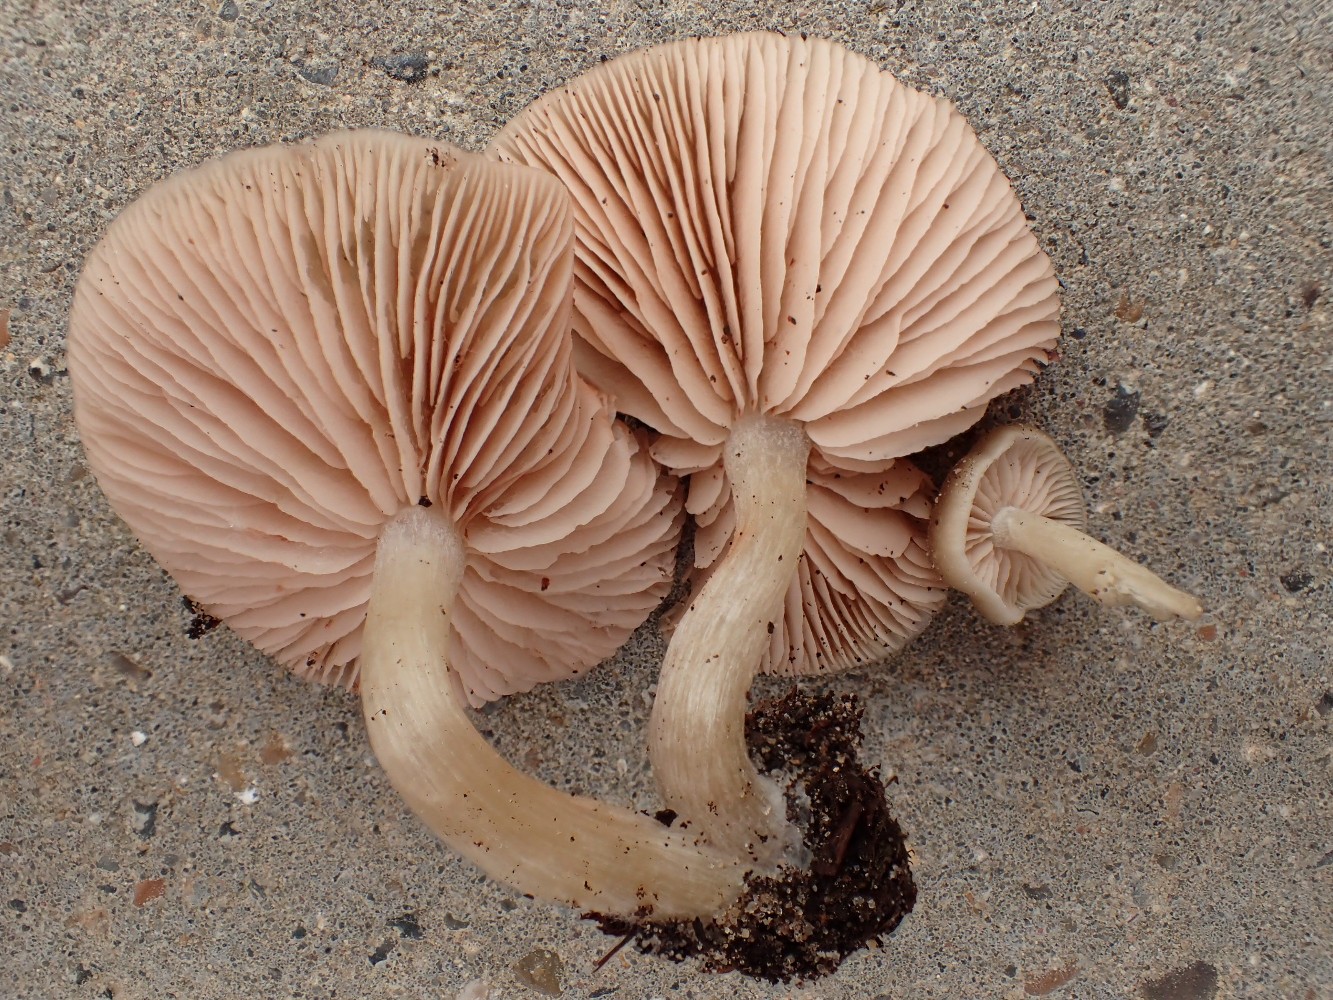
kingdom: Fungi
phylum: Basidiomycota
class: Agaricomycetes
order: Agaricales
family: Entolomataceae
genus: Entoloma
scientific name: Entoloma
